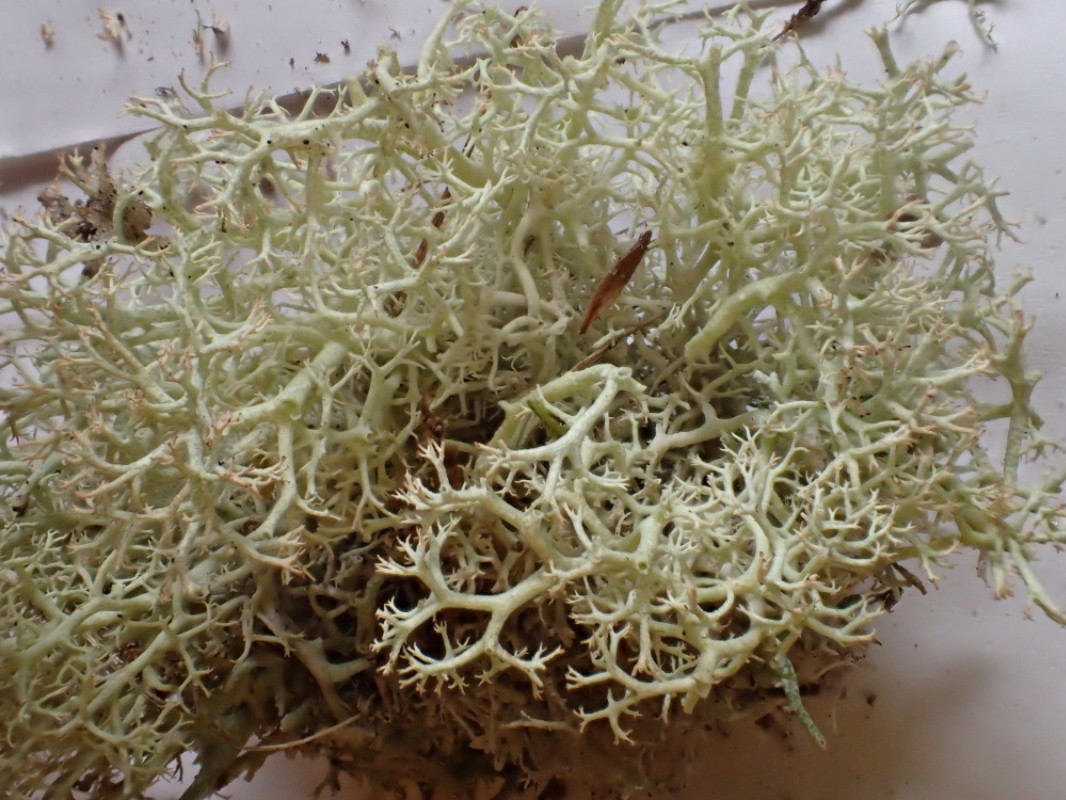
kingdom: Fungi
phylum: Ascomycota
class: Lecanoromycetes
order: Lecanorales
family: Cladoniaceae
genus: Cladonia
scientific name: Cladonia portentosa
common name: hede-rensdyrlav
